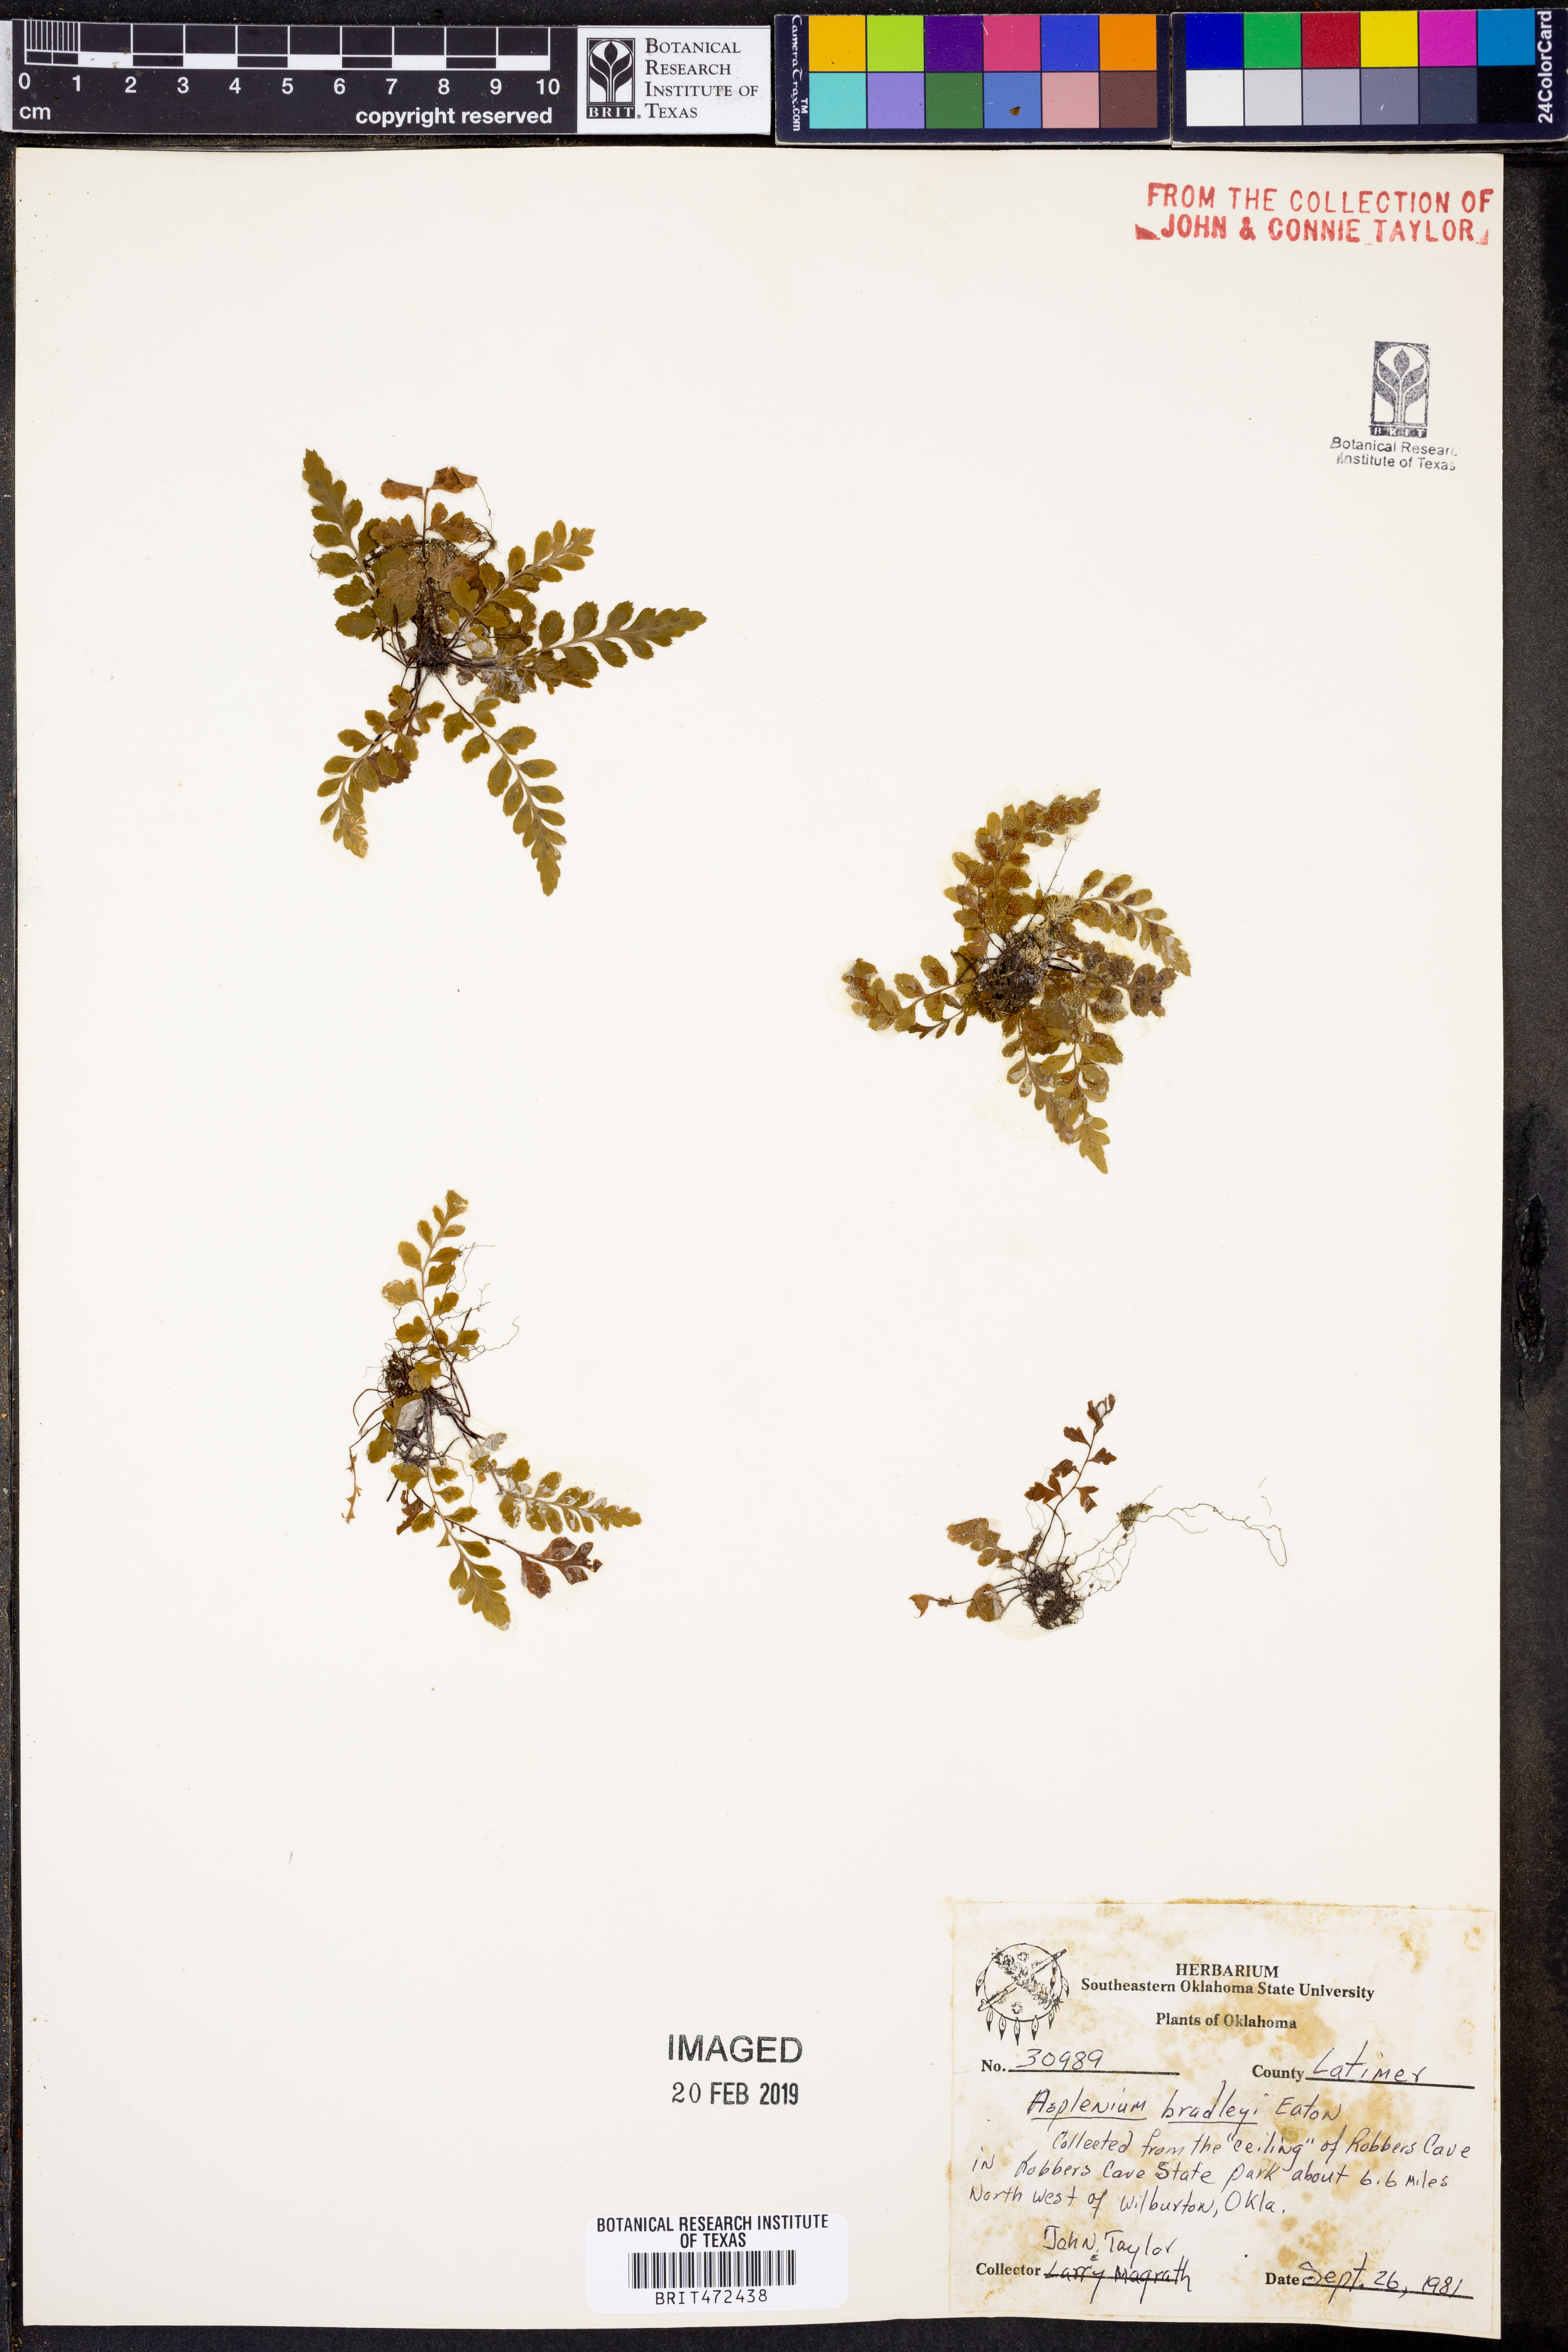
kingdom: Plantae
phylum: Tracheophyta
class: Polypodiopsida
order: Polypodiales
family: Aspleniaceae
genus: Asplenium
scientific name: Asplenium bradleyi
